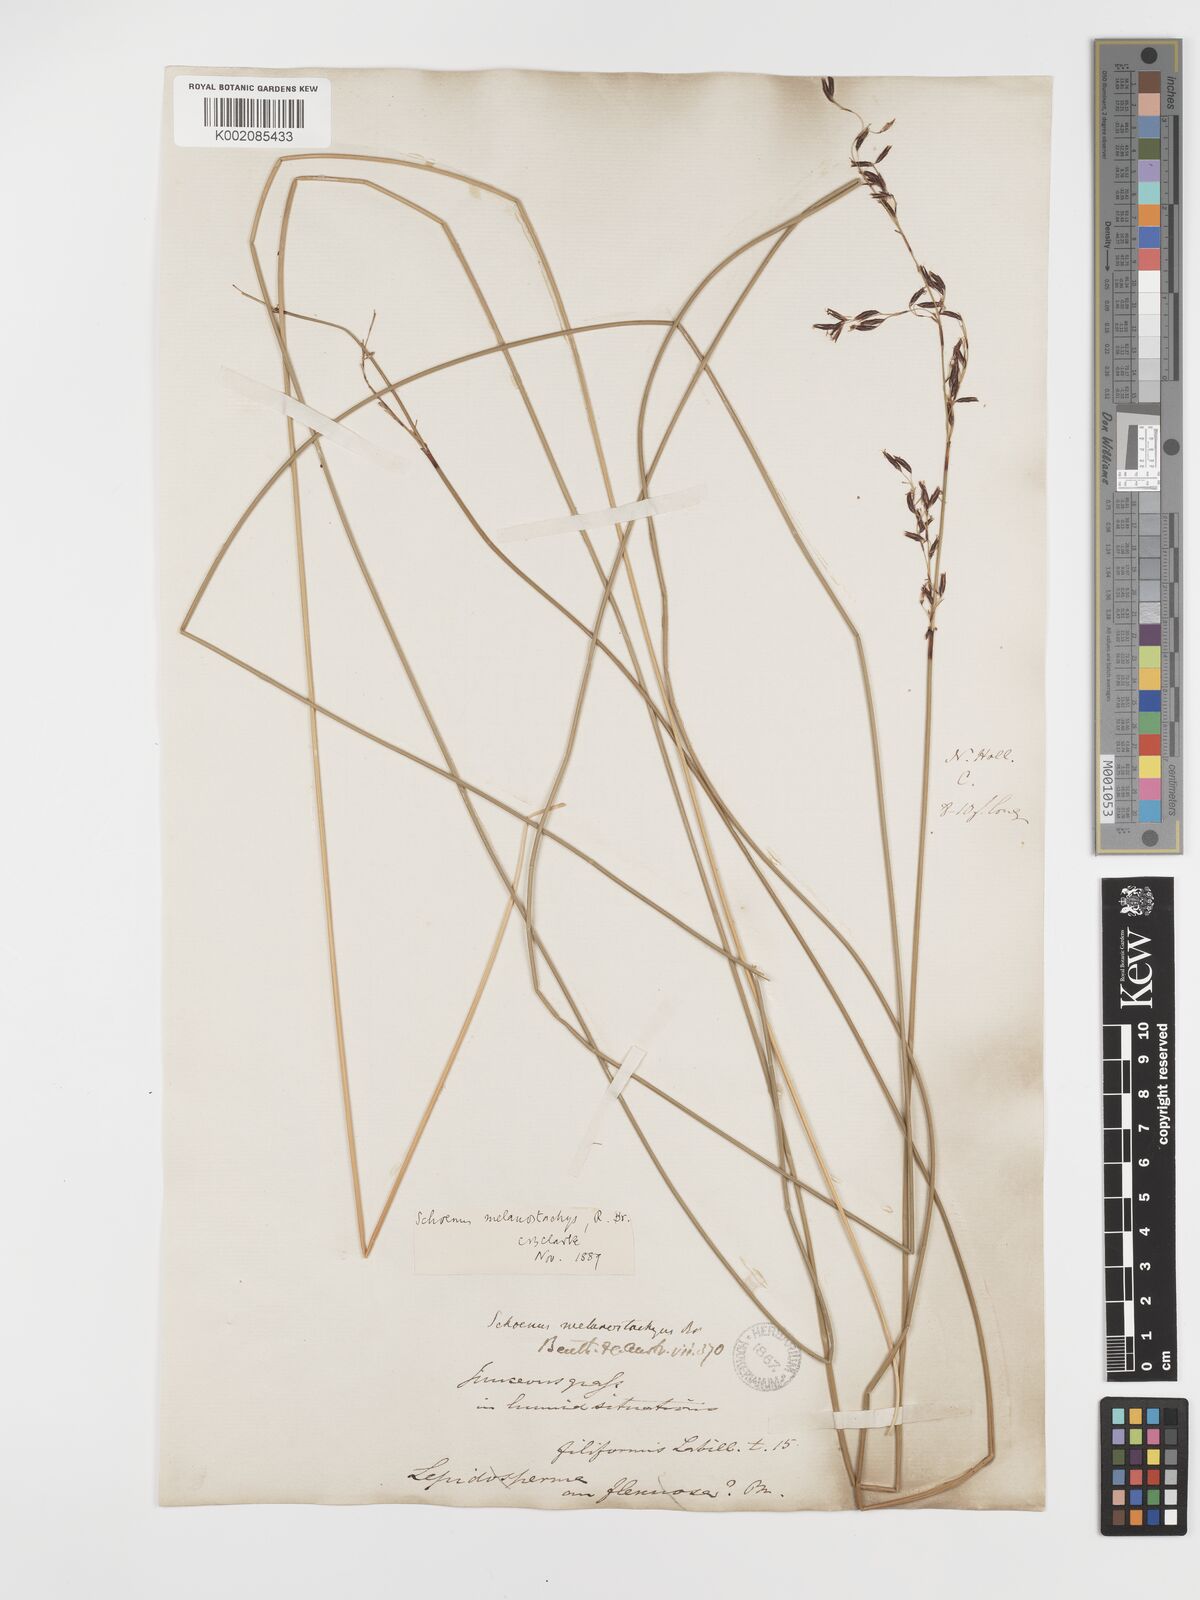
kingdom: Plantae
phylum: Tracheophyta
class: Liliopsida
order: Poales
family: Cyperaceae
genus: Schoenus
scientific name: Schoenus melanostachys
